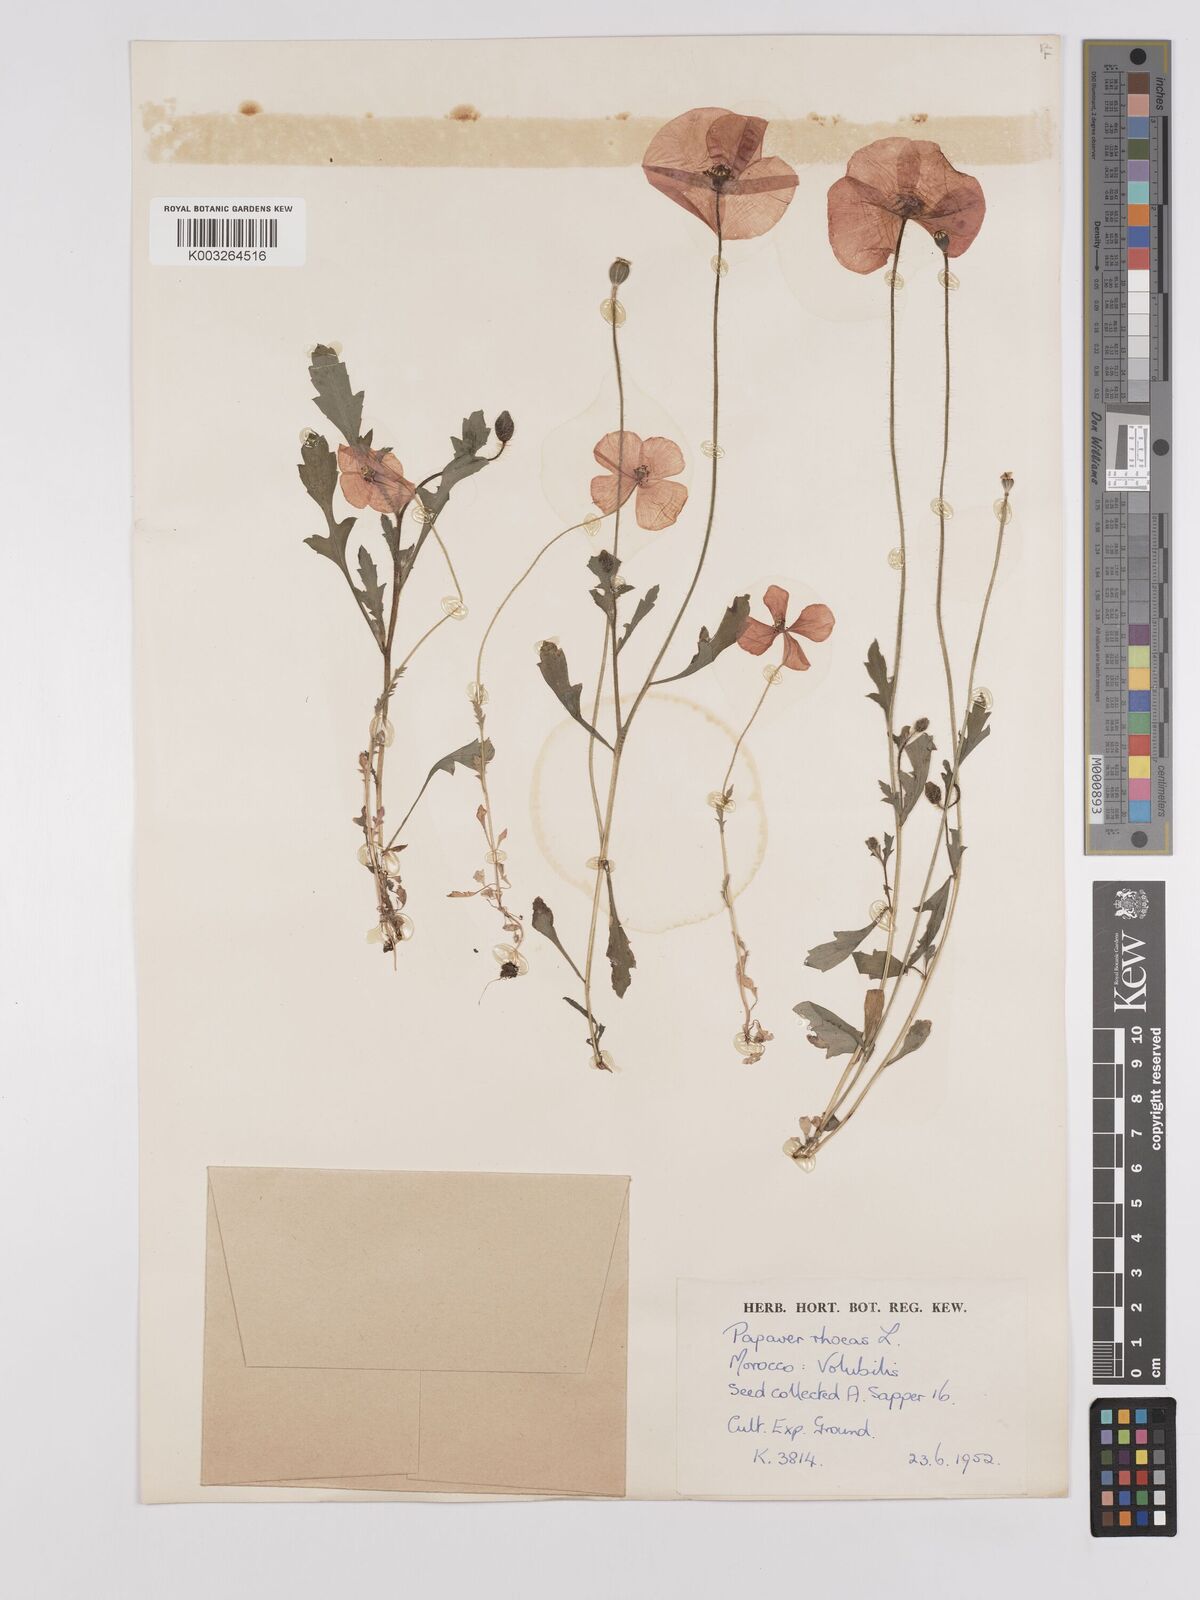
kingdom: Plantae
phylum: Tracheophyta
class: Magnoliopsida
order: Ranunculales
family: Papaveraceae
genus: Papaver
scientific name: Papaver rhoeas
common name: Corn poppy
